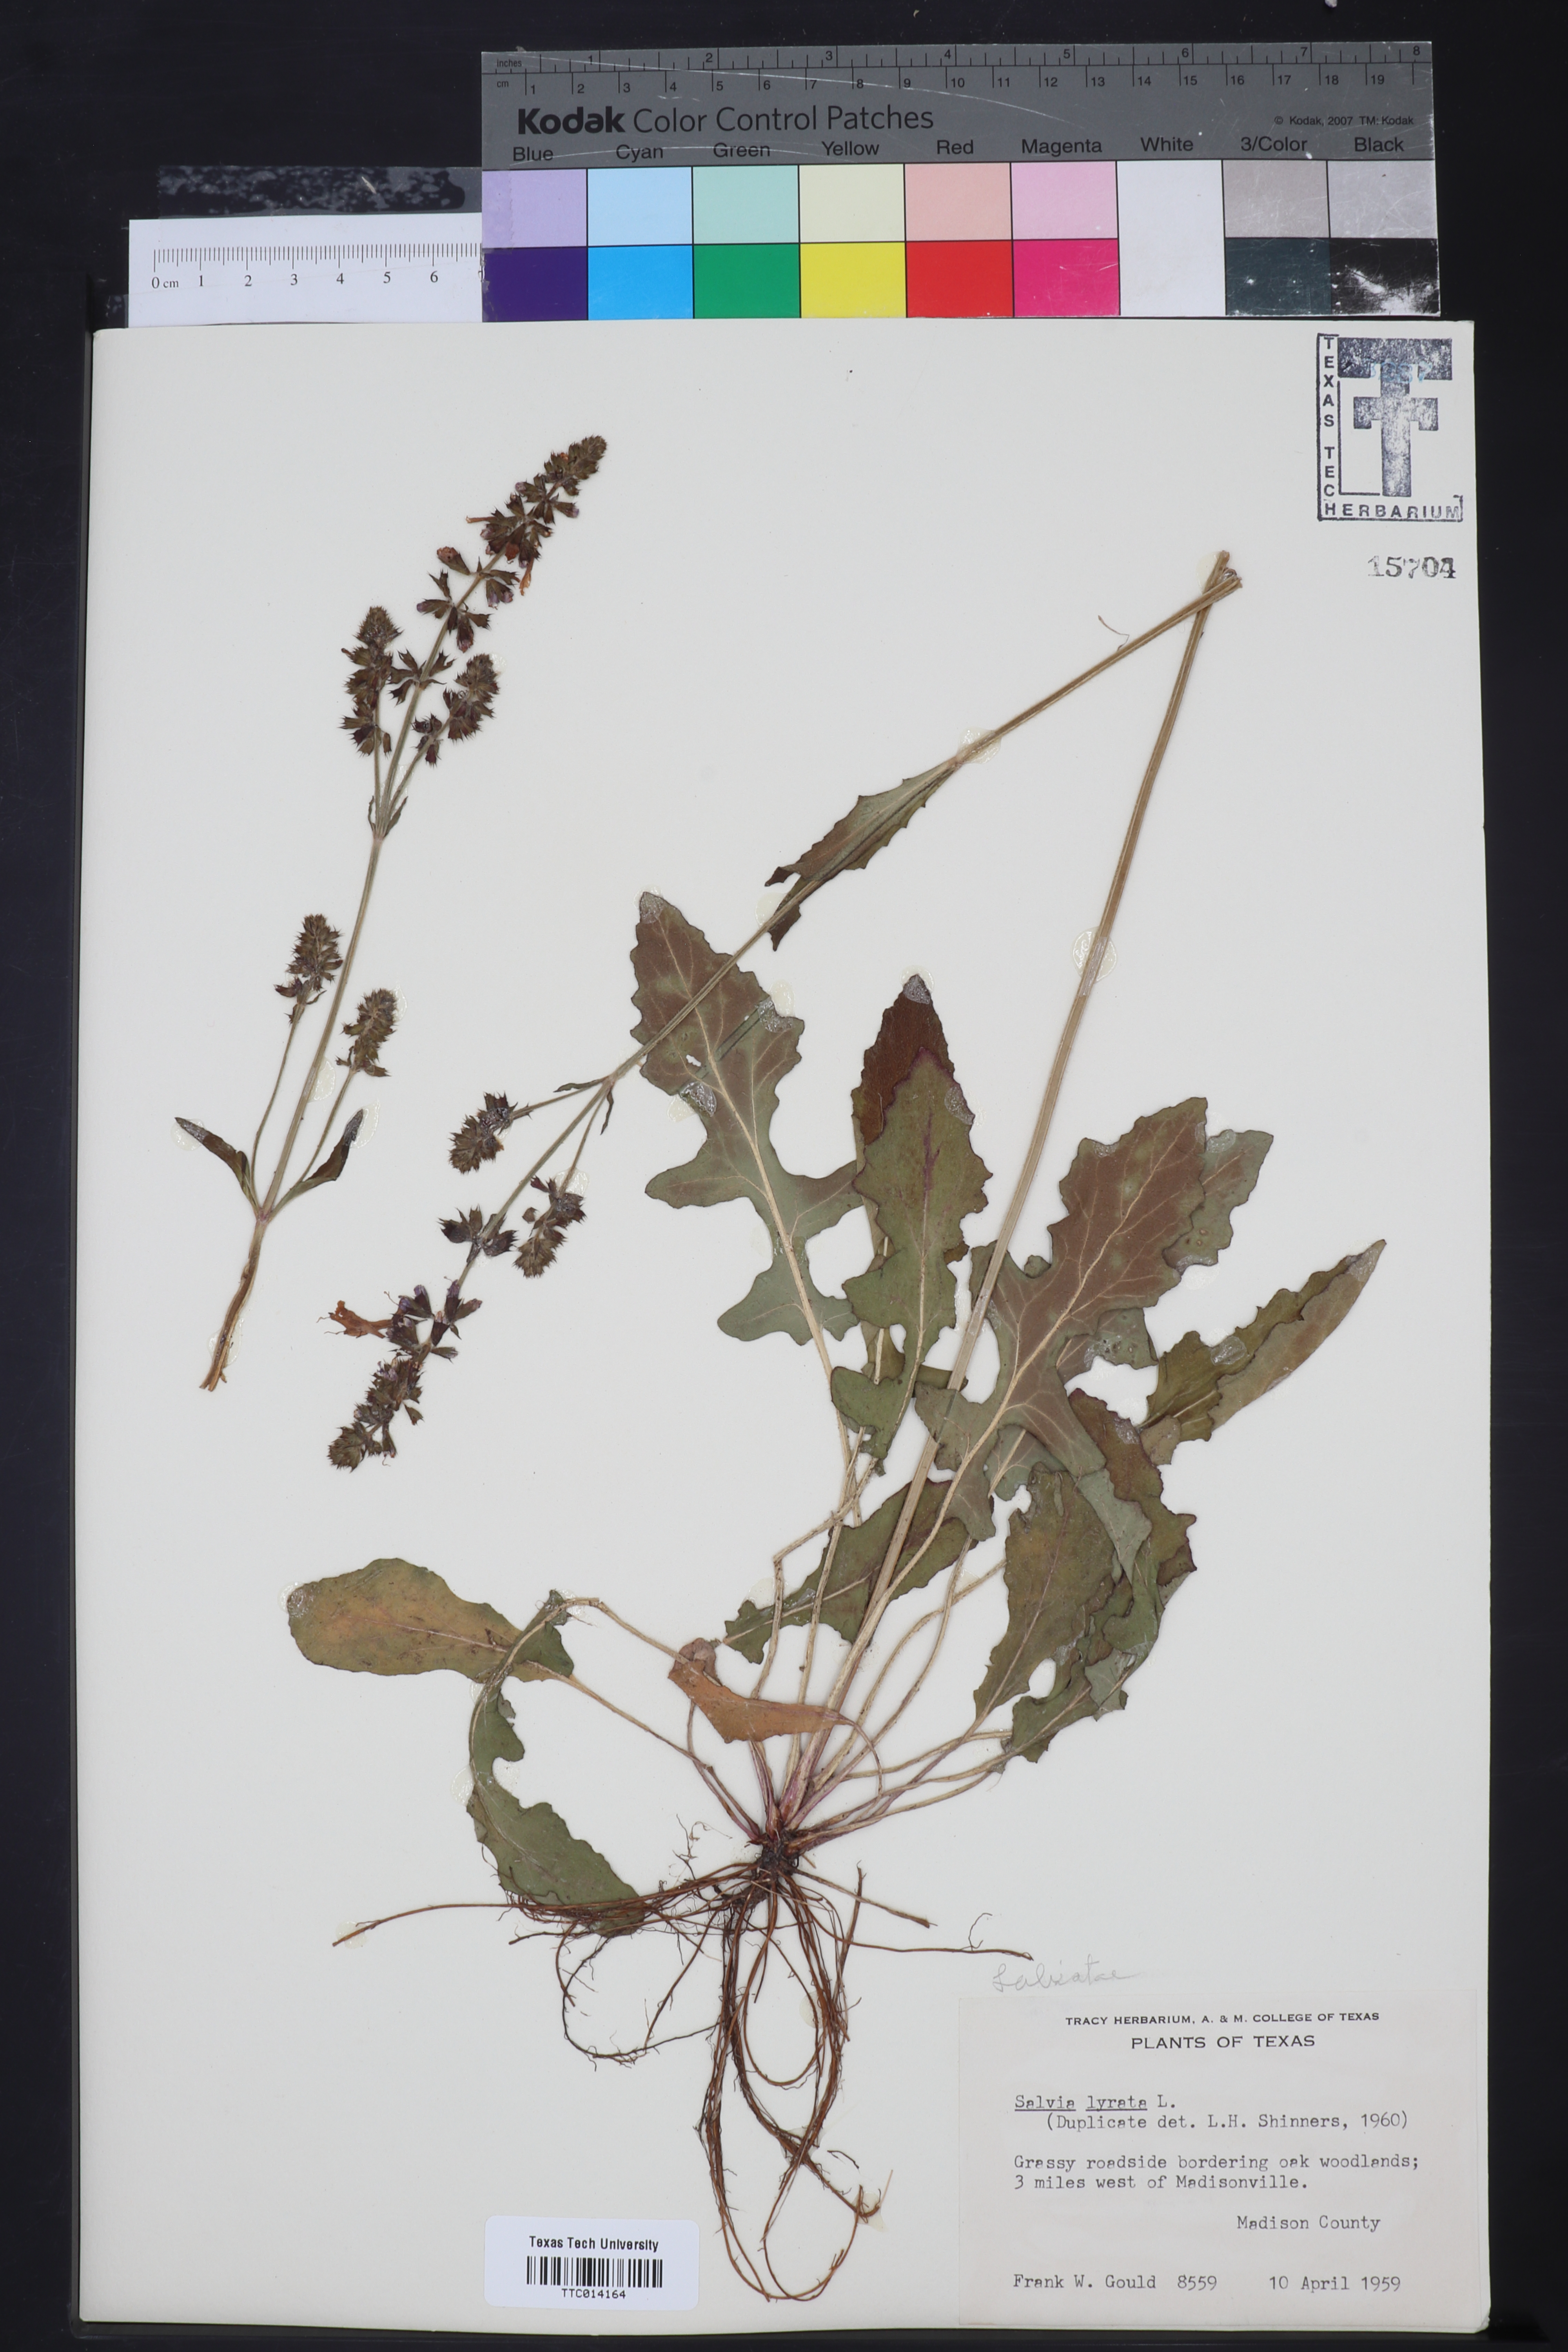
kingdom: Plantae
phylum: Tracheophyta
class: Magnoliopsida
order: Lamiales
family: Lamiaceae
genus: Salvia
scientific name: Salvia lyrata
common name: Cancerweed
